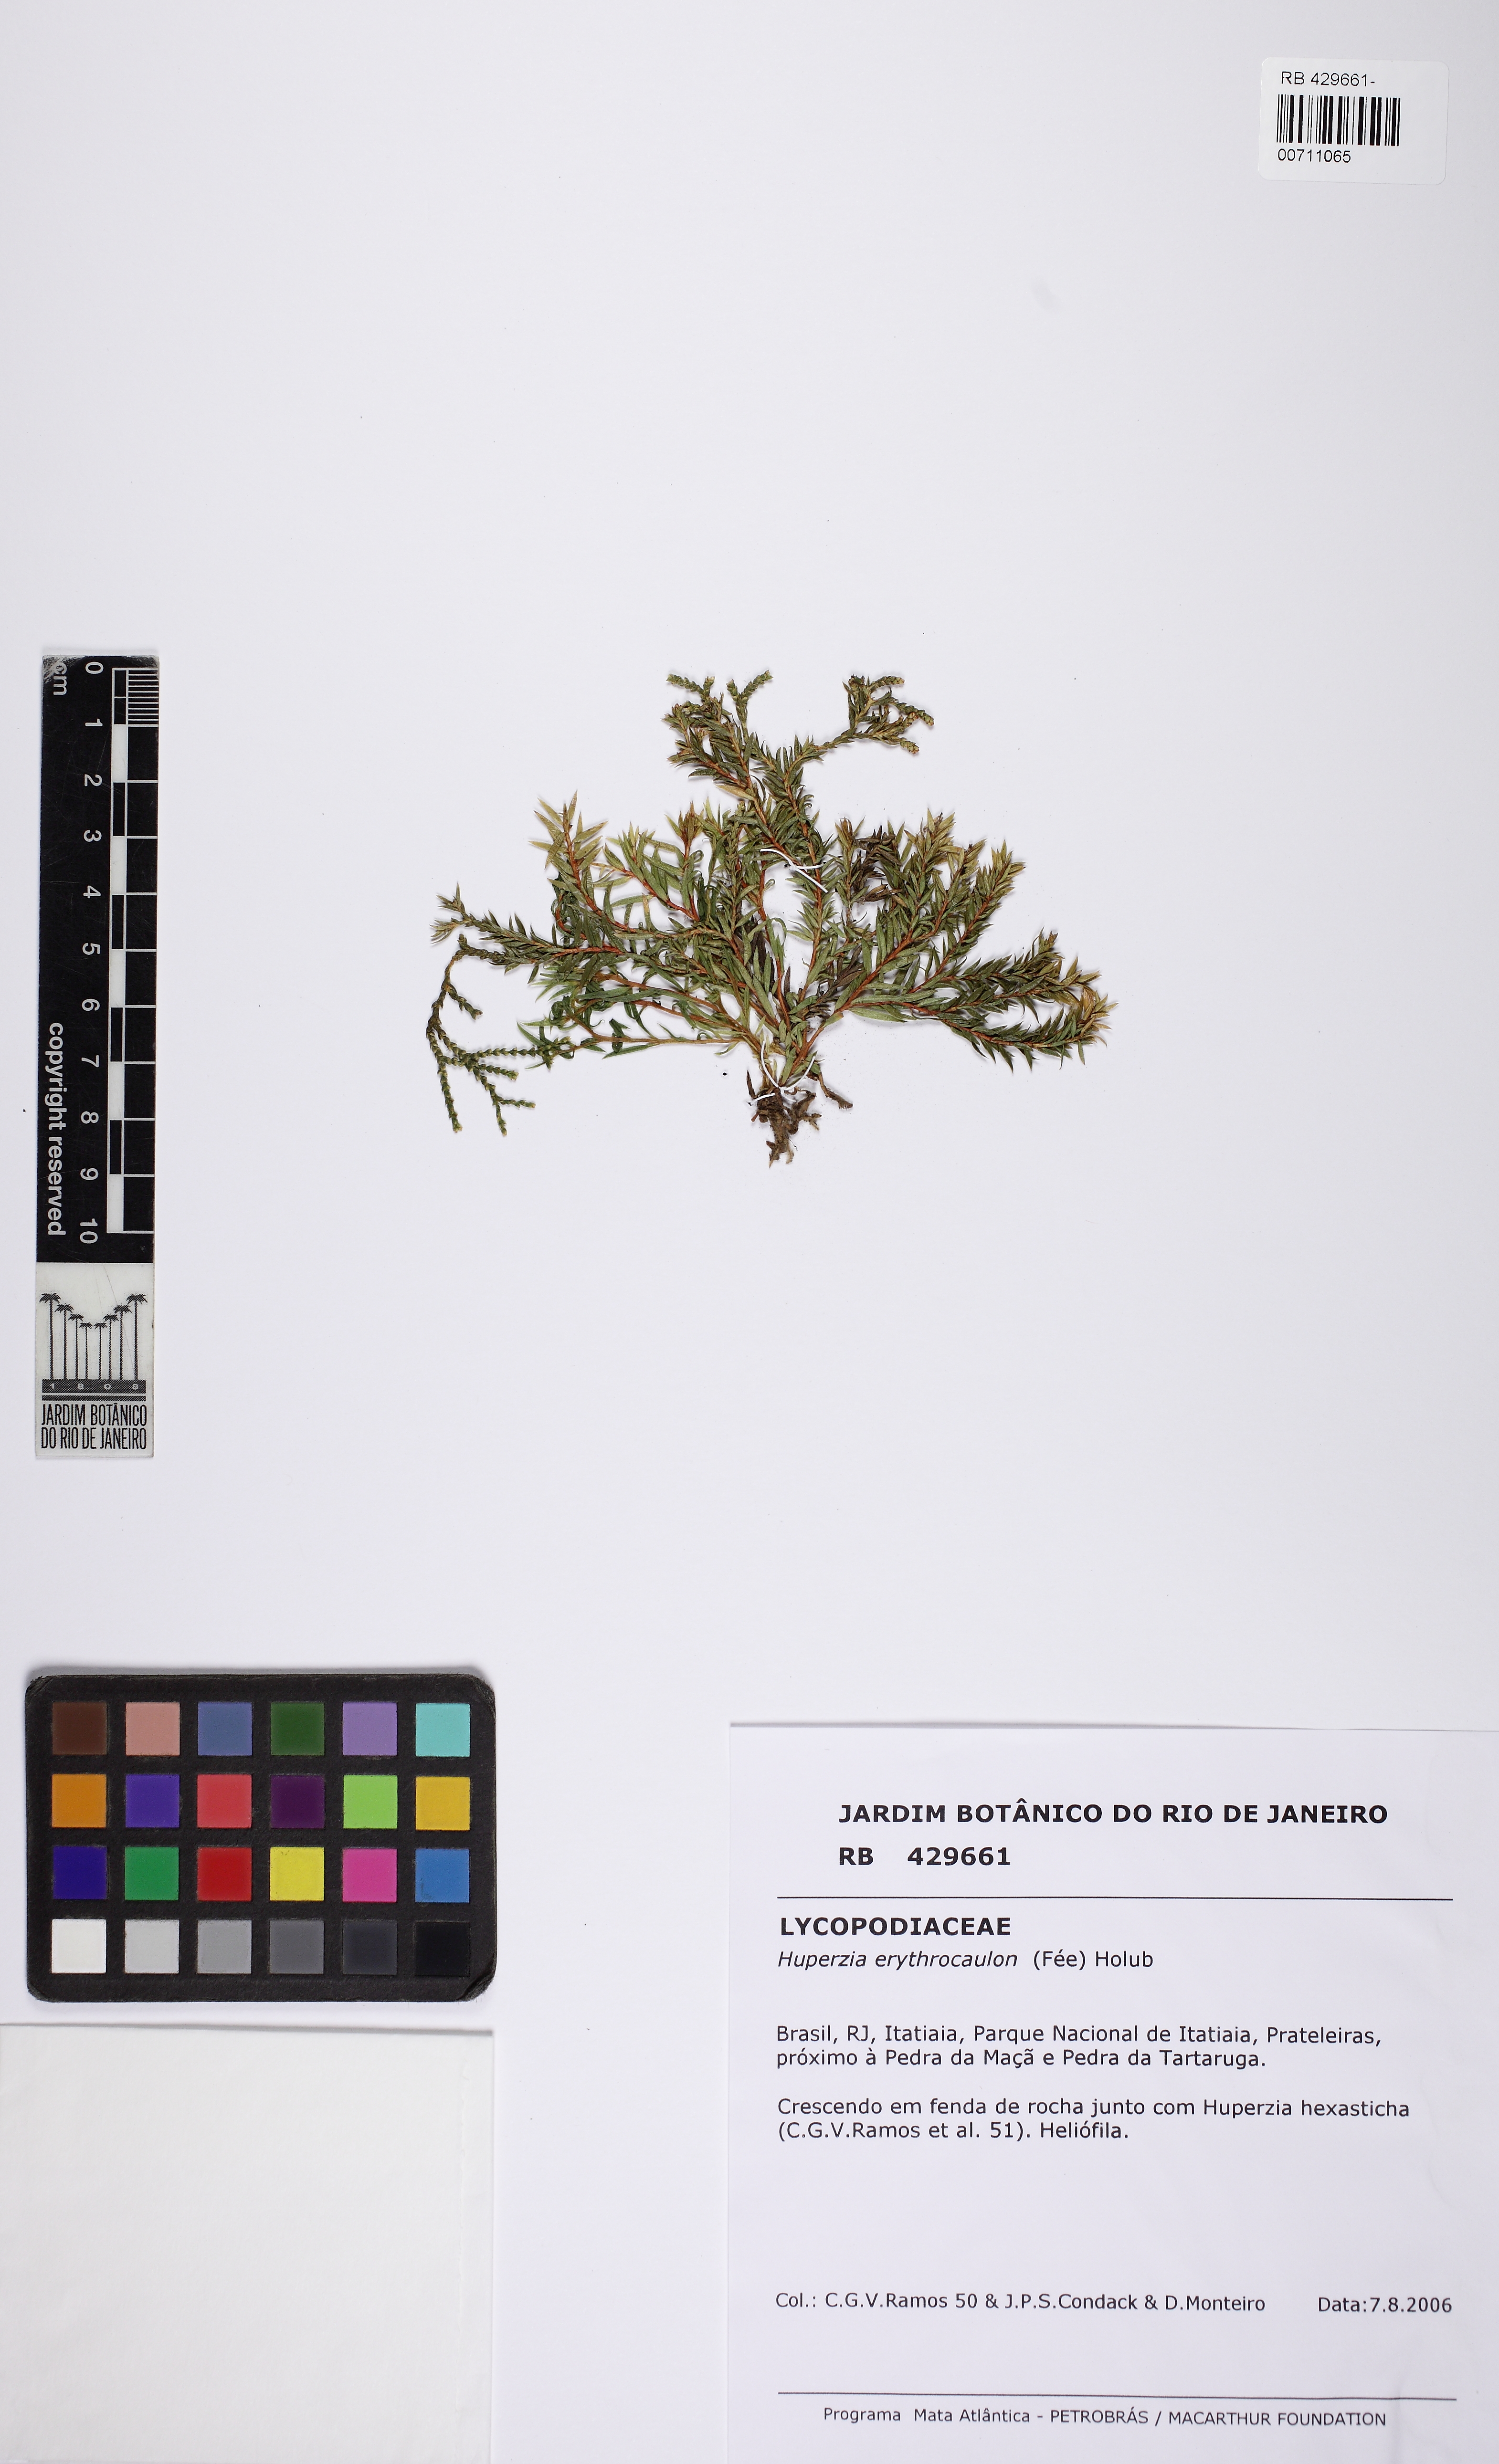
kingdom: Plantae
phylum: Tracheophyta
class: Lycopodiopsida
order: Lycopodiales
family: Lycopodiaceae
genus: Phlegmariurus
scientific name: Phlegmariurus erythrocaulos
